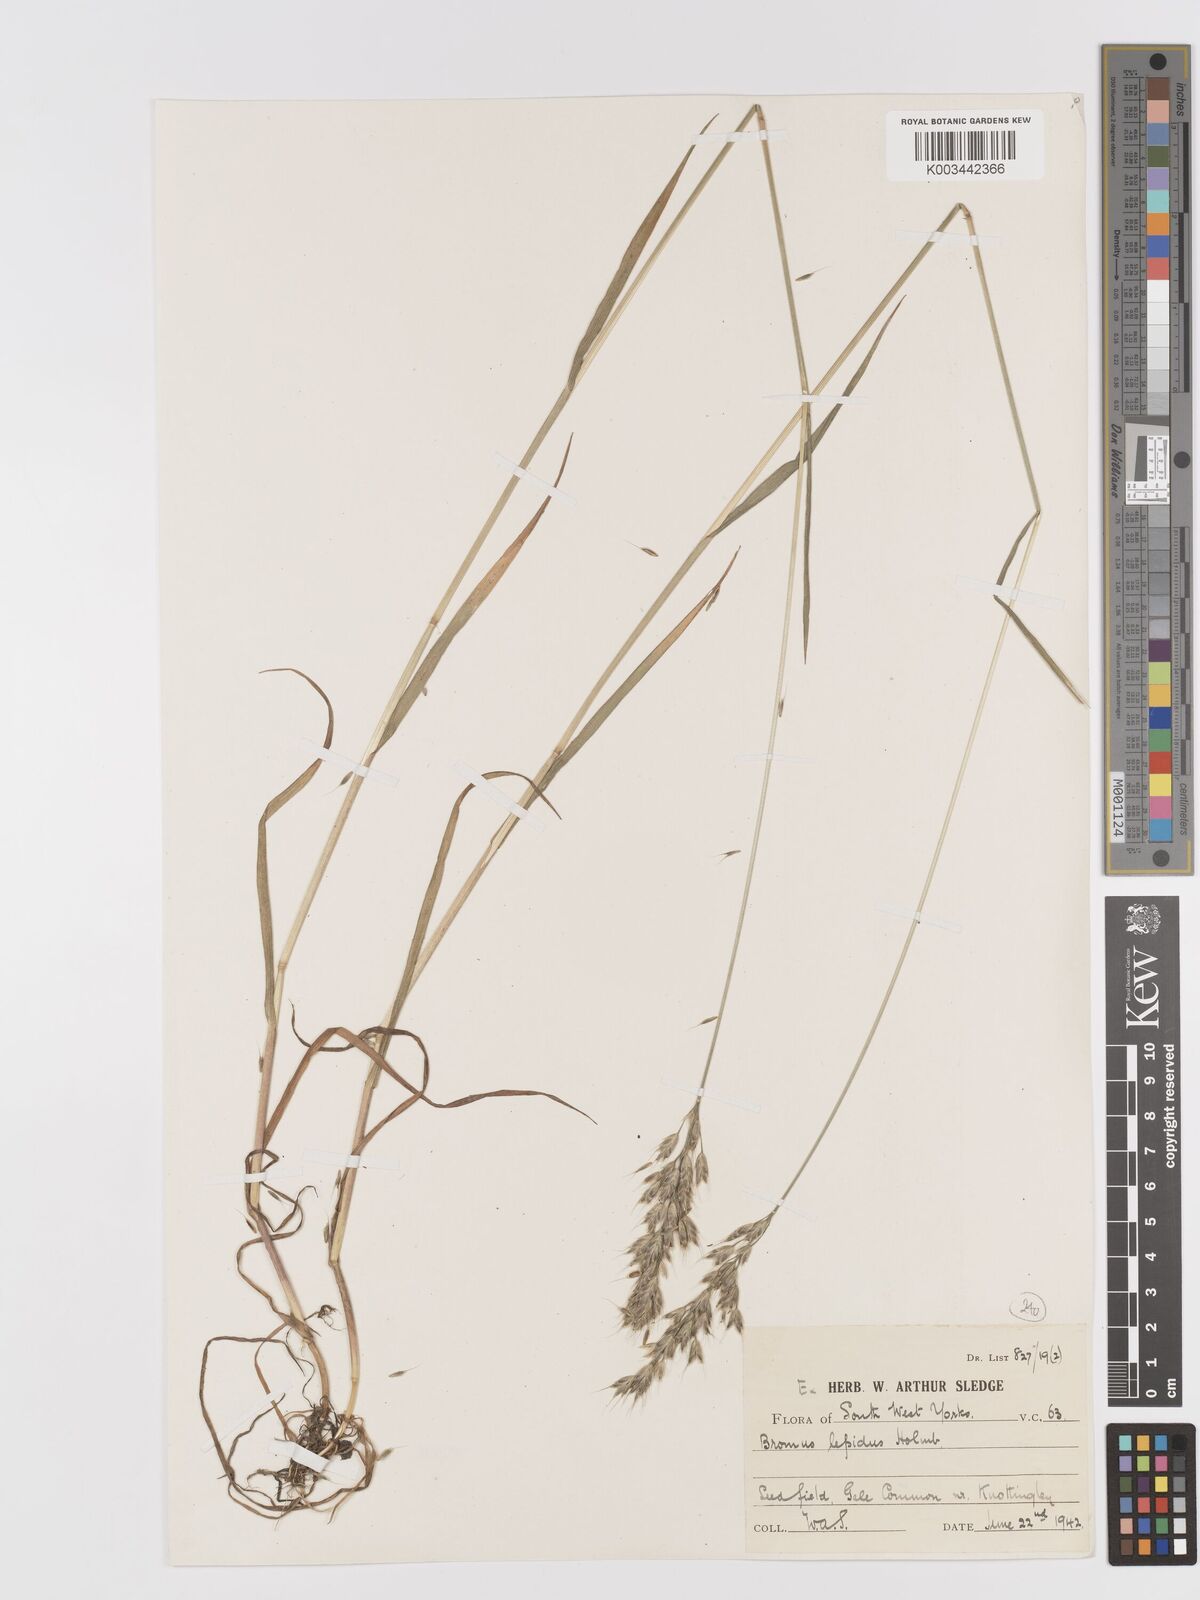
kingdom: Plantae
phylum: Tracheophyta
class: Liliopsida
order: Poales
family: Poaceae
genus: Bromus
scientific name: Bromus lepidus
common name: Slender soft-brome
